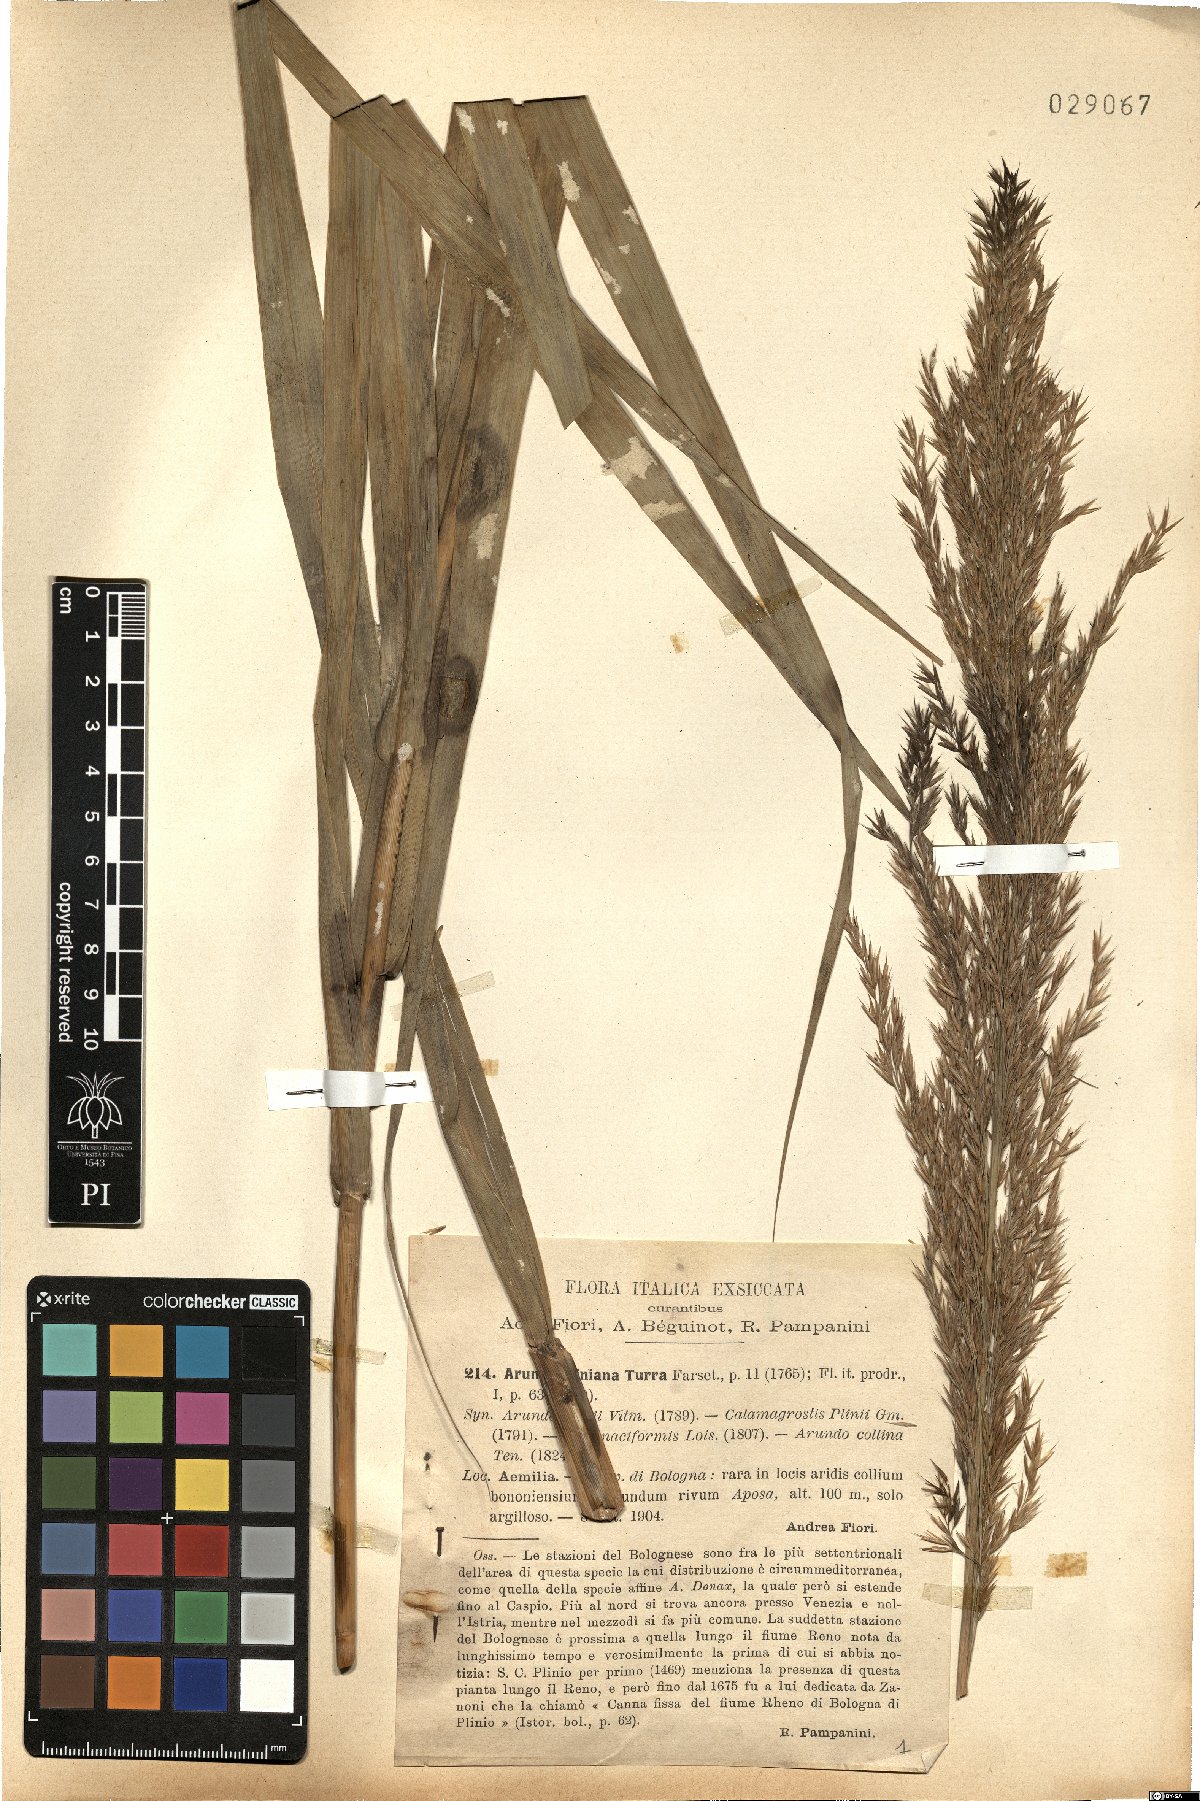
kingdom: Plantae
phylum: Tracheophyta
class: Liliopsida
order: Poales
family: Poaceae
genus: Arundo
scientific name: Arundo plinii
